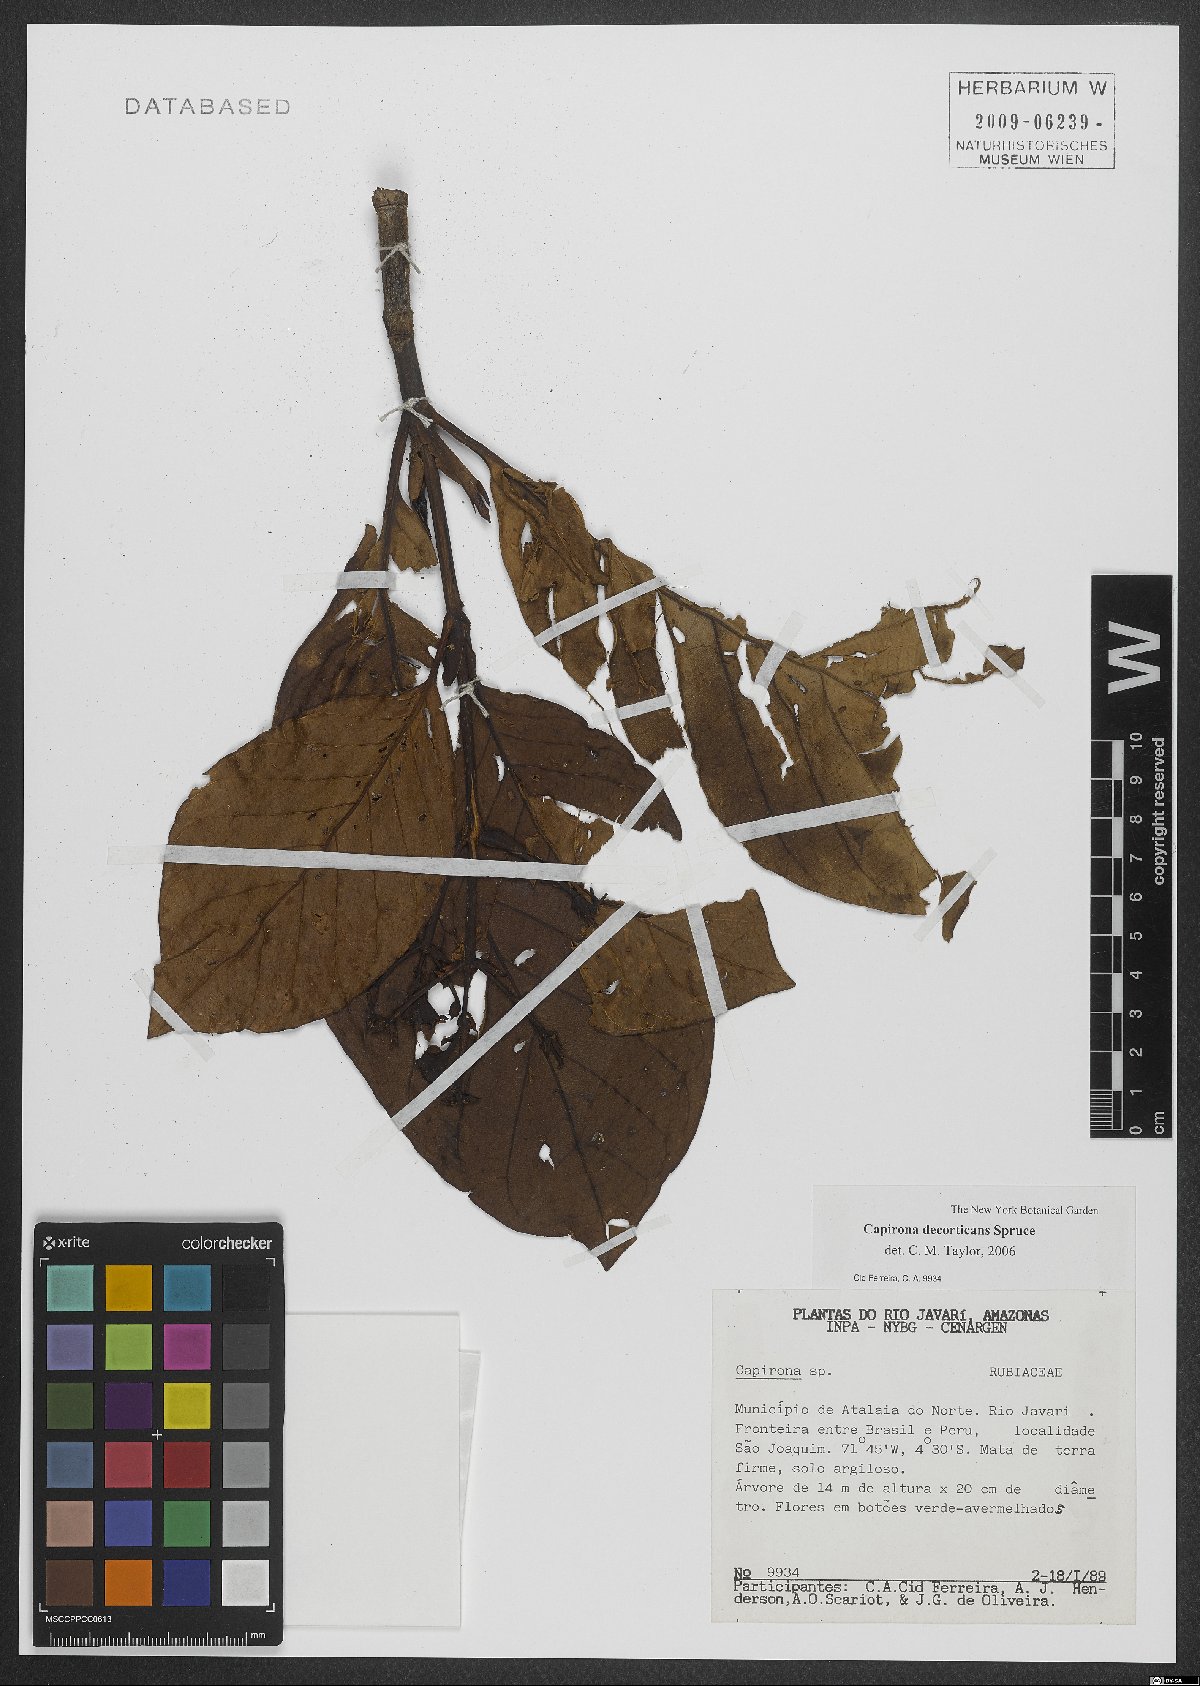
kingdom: Plantae
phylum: Tracheophyta
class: Magnoliopsida
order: Gentianales
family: Rubiaceae
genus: Capirona
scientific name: Capirona macrophylla
